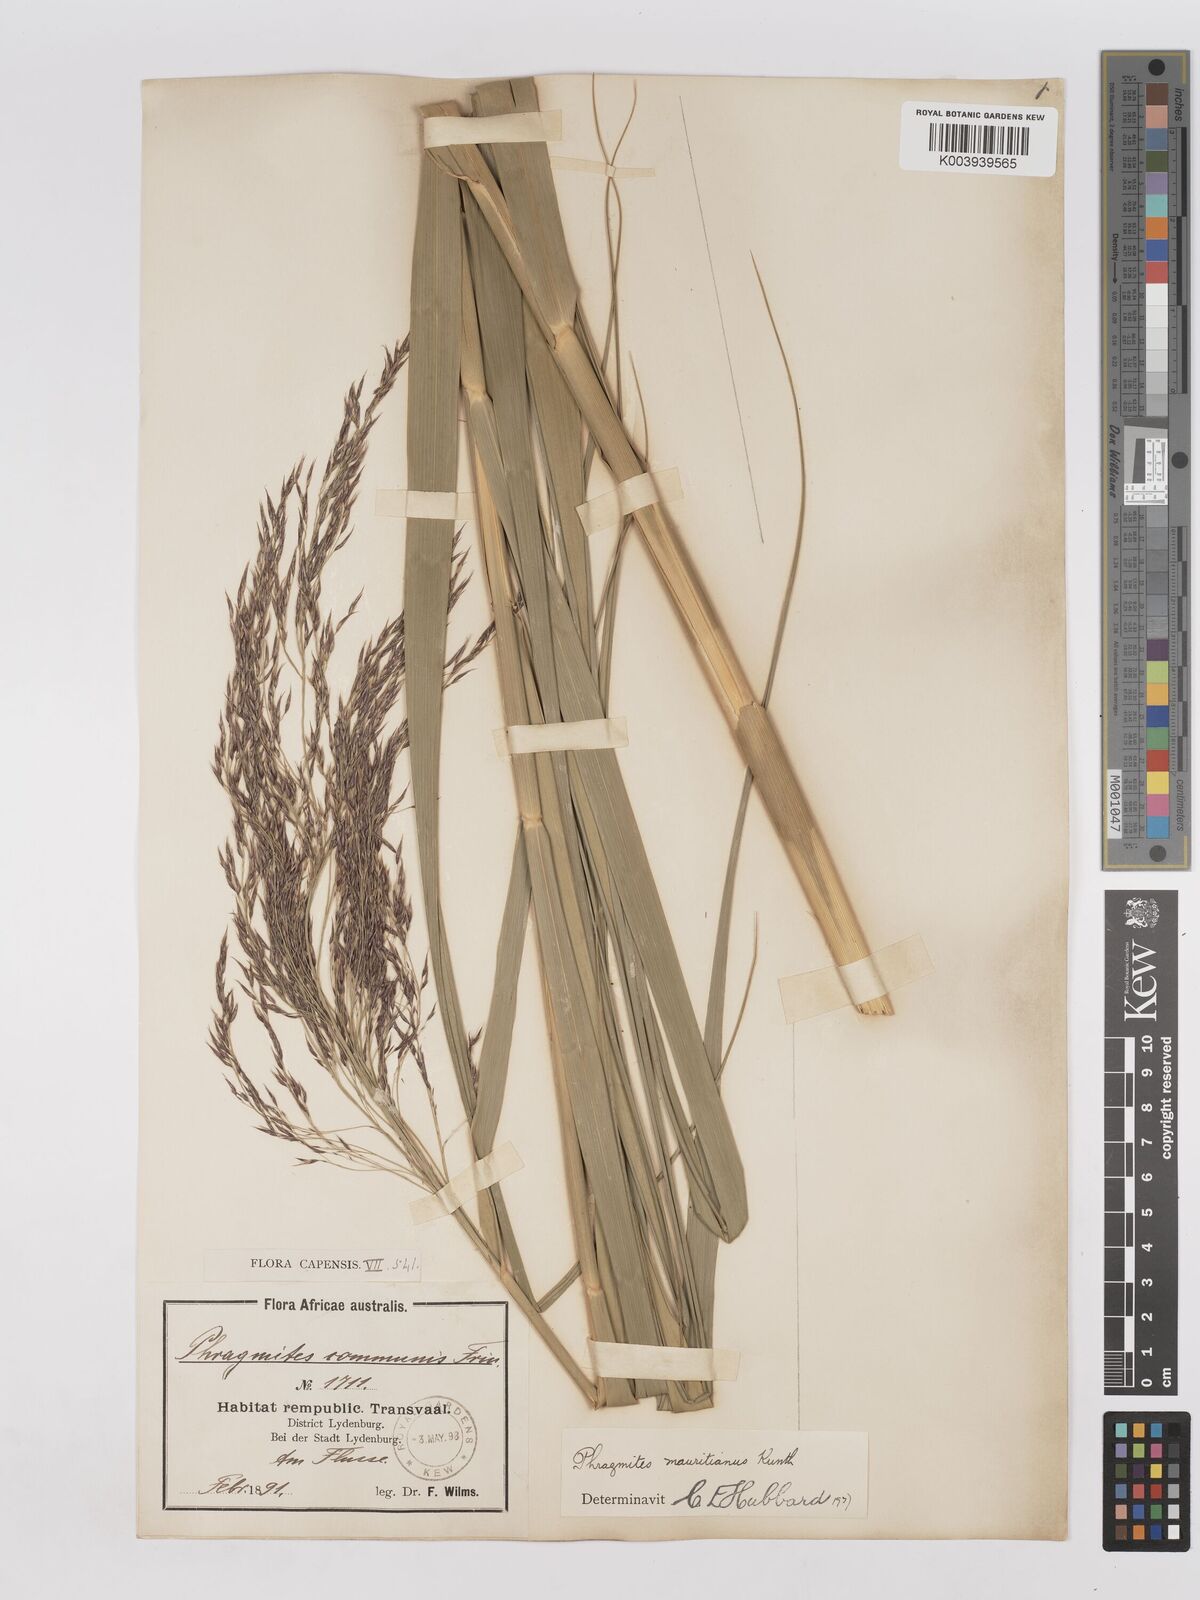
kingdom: Plantae
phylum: Tracheophyta
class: Liliopsida
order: Poales
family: Poaceae
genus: Phragmites
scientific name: Phragmites mauritianus
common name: Reed grass
